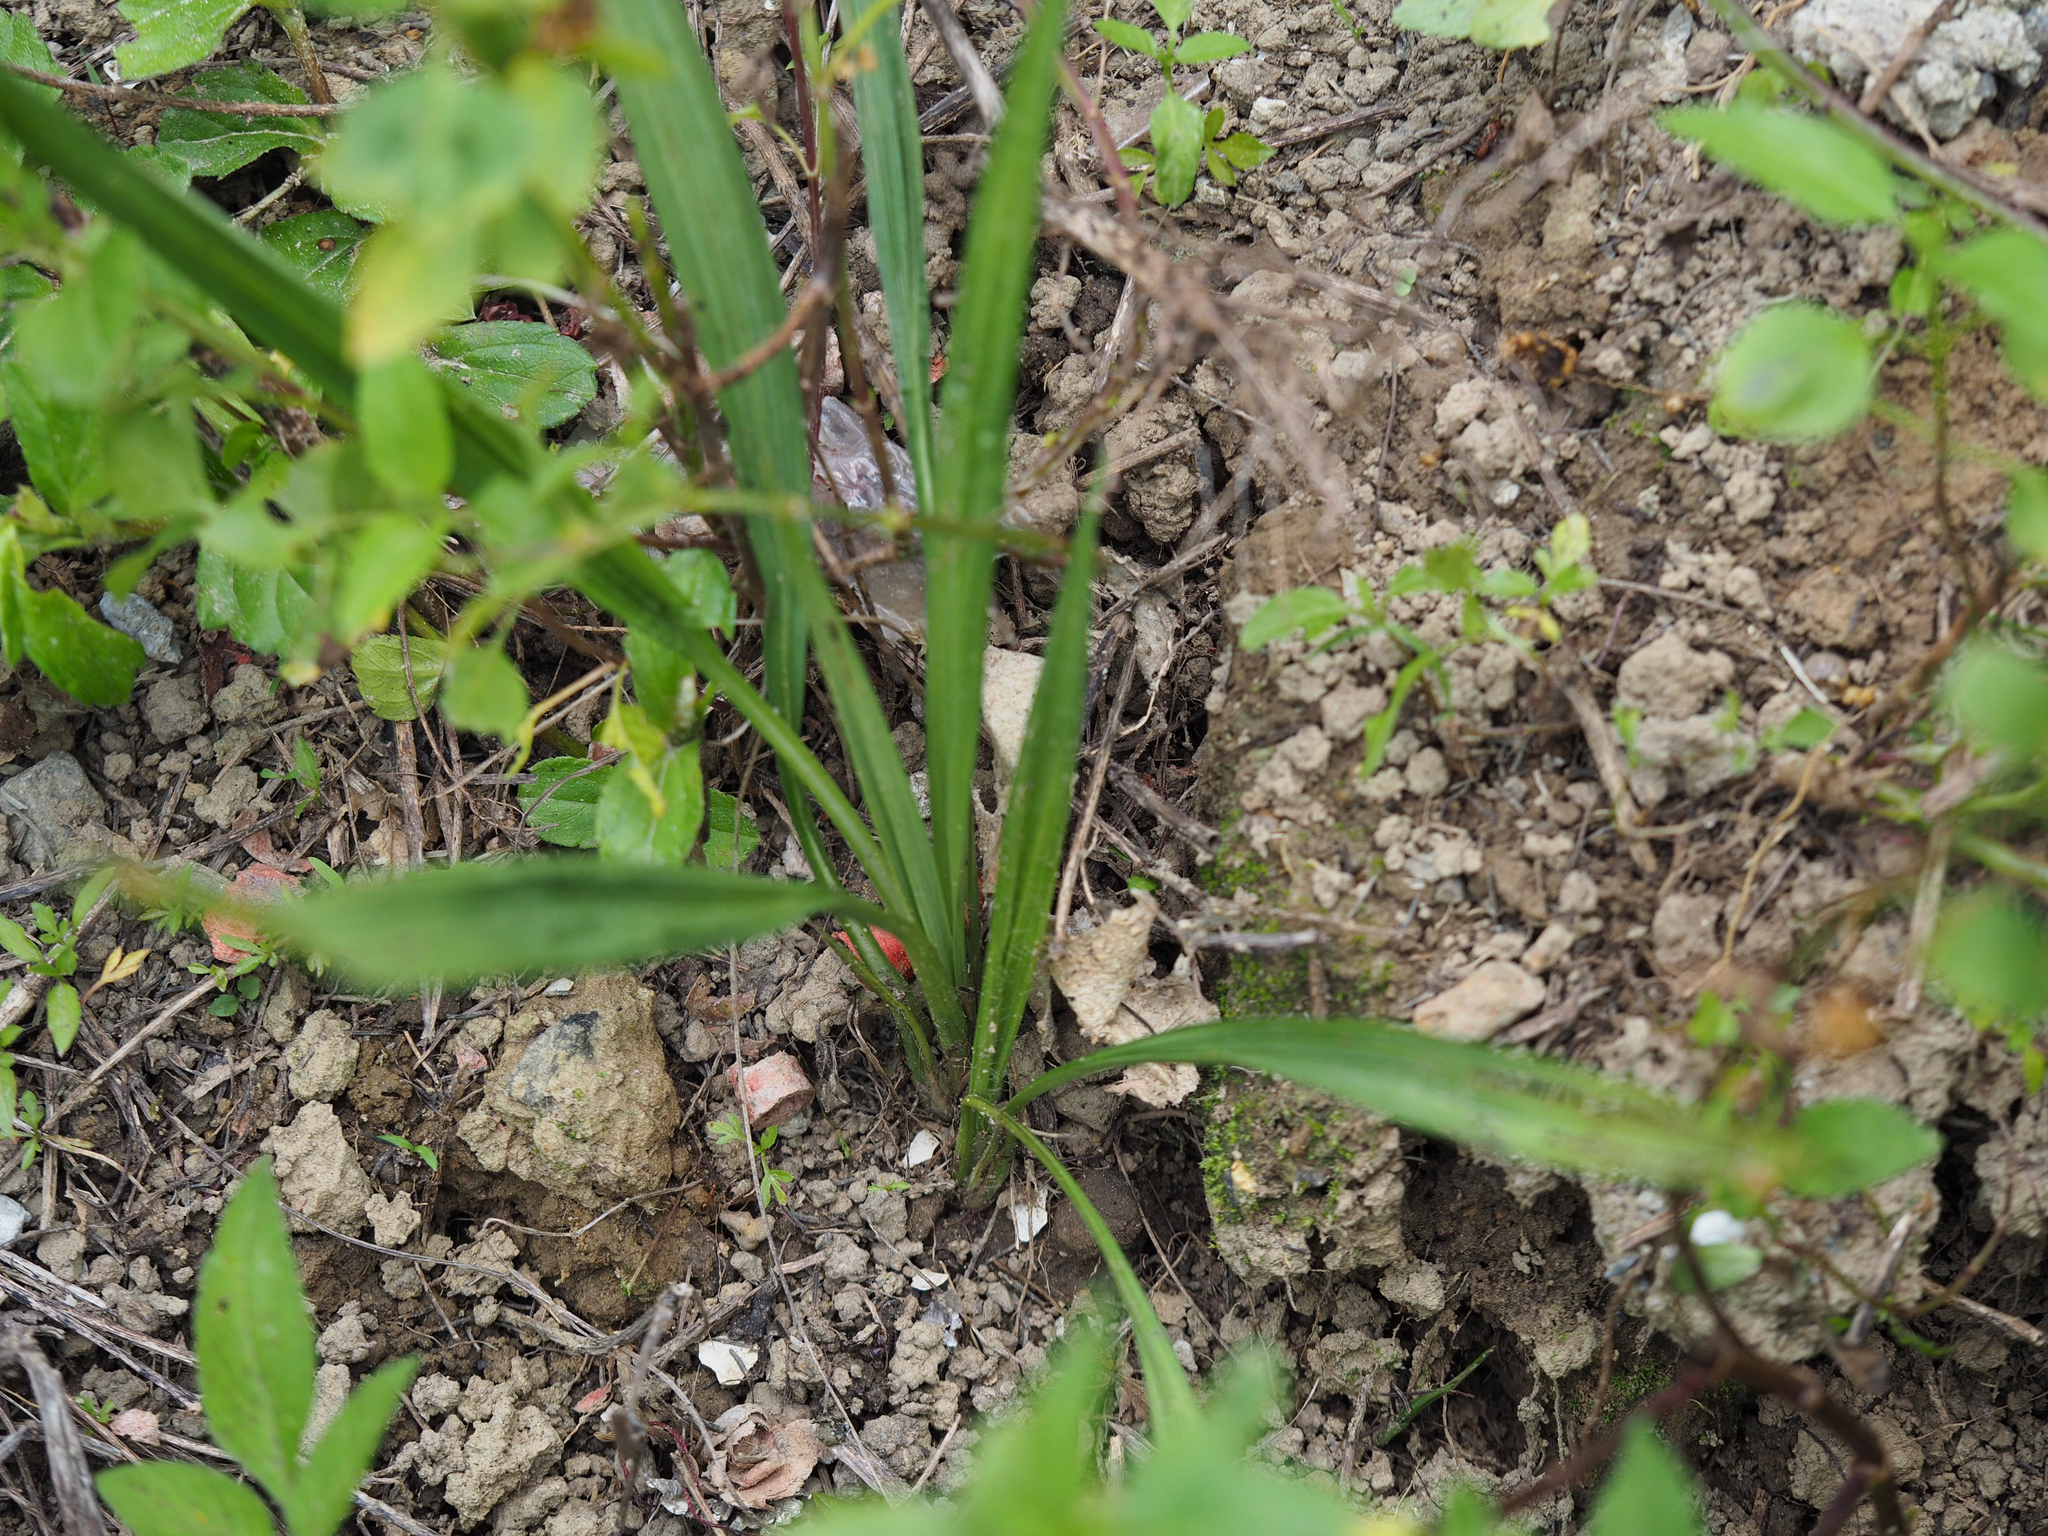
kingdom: Plantae
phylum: Tracheophyta
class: Liliopsida
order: Asparagales
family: Hypoxidaceae
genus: Curculigo
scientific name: Curculigo orchioides
